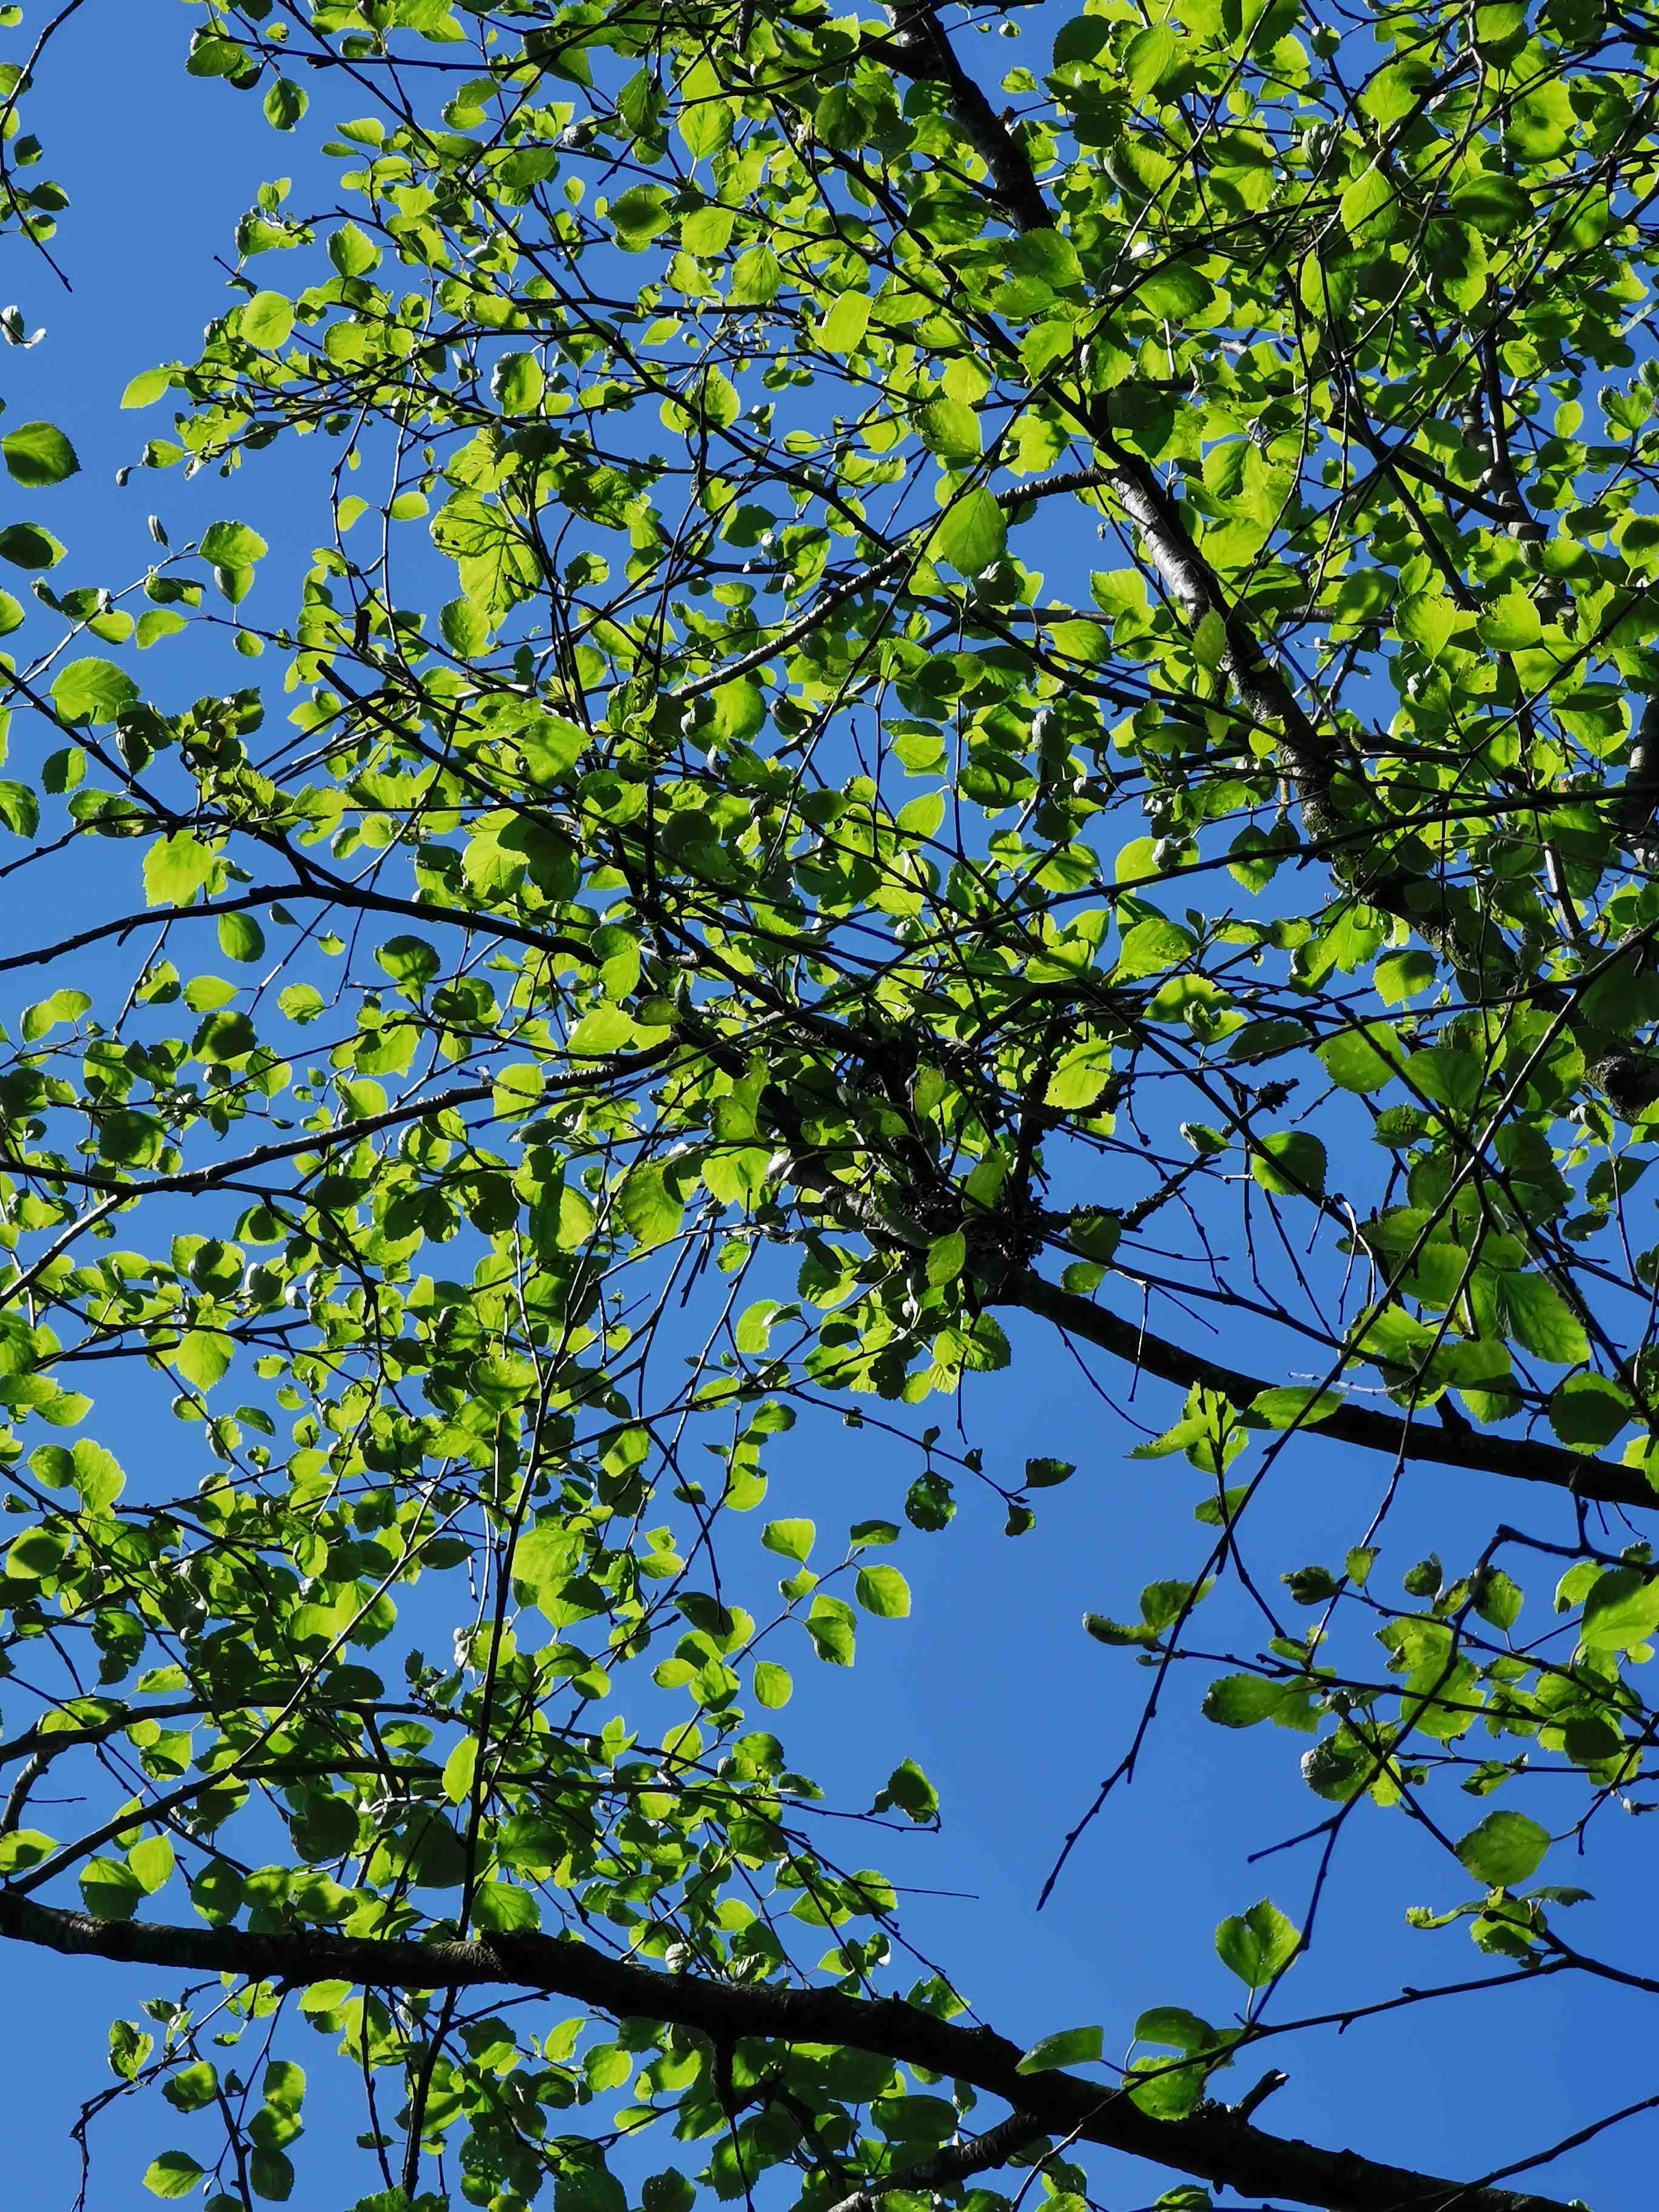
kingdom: Fungi
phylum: Ascomycota
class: Taphrinomycetes
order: Taphrinales
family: Taphrinaceae
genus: Taphrina
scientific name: Taphrina betulina
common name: hekse-sækdug
